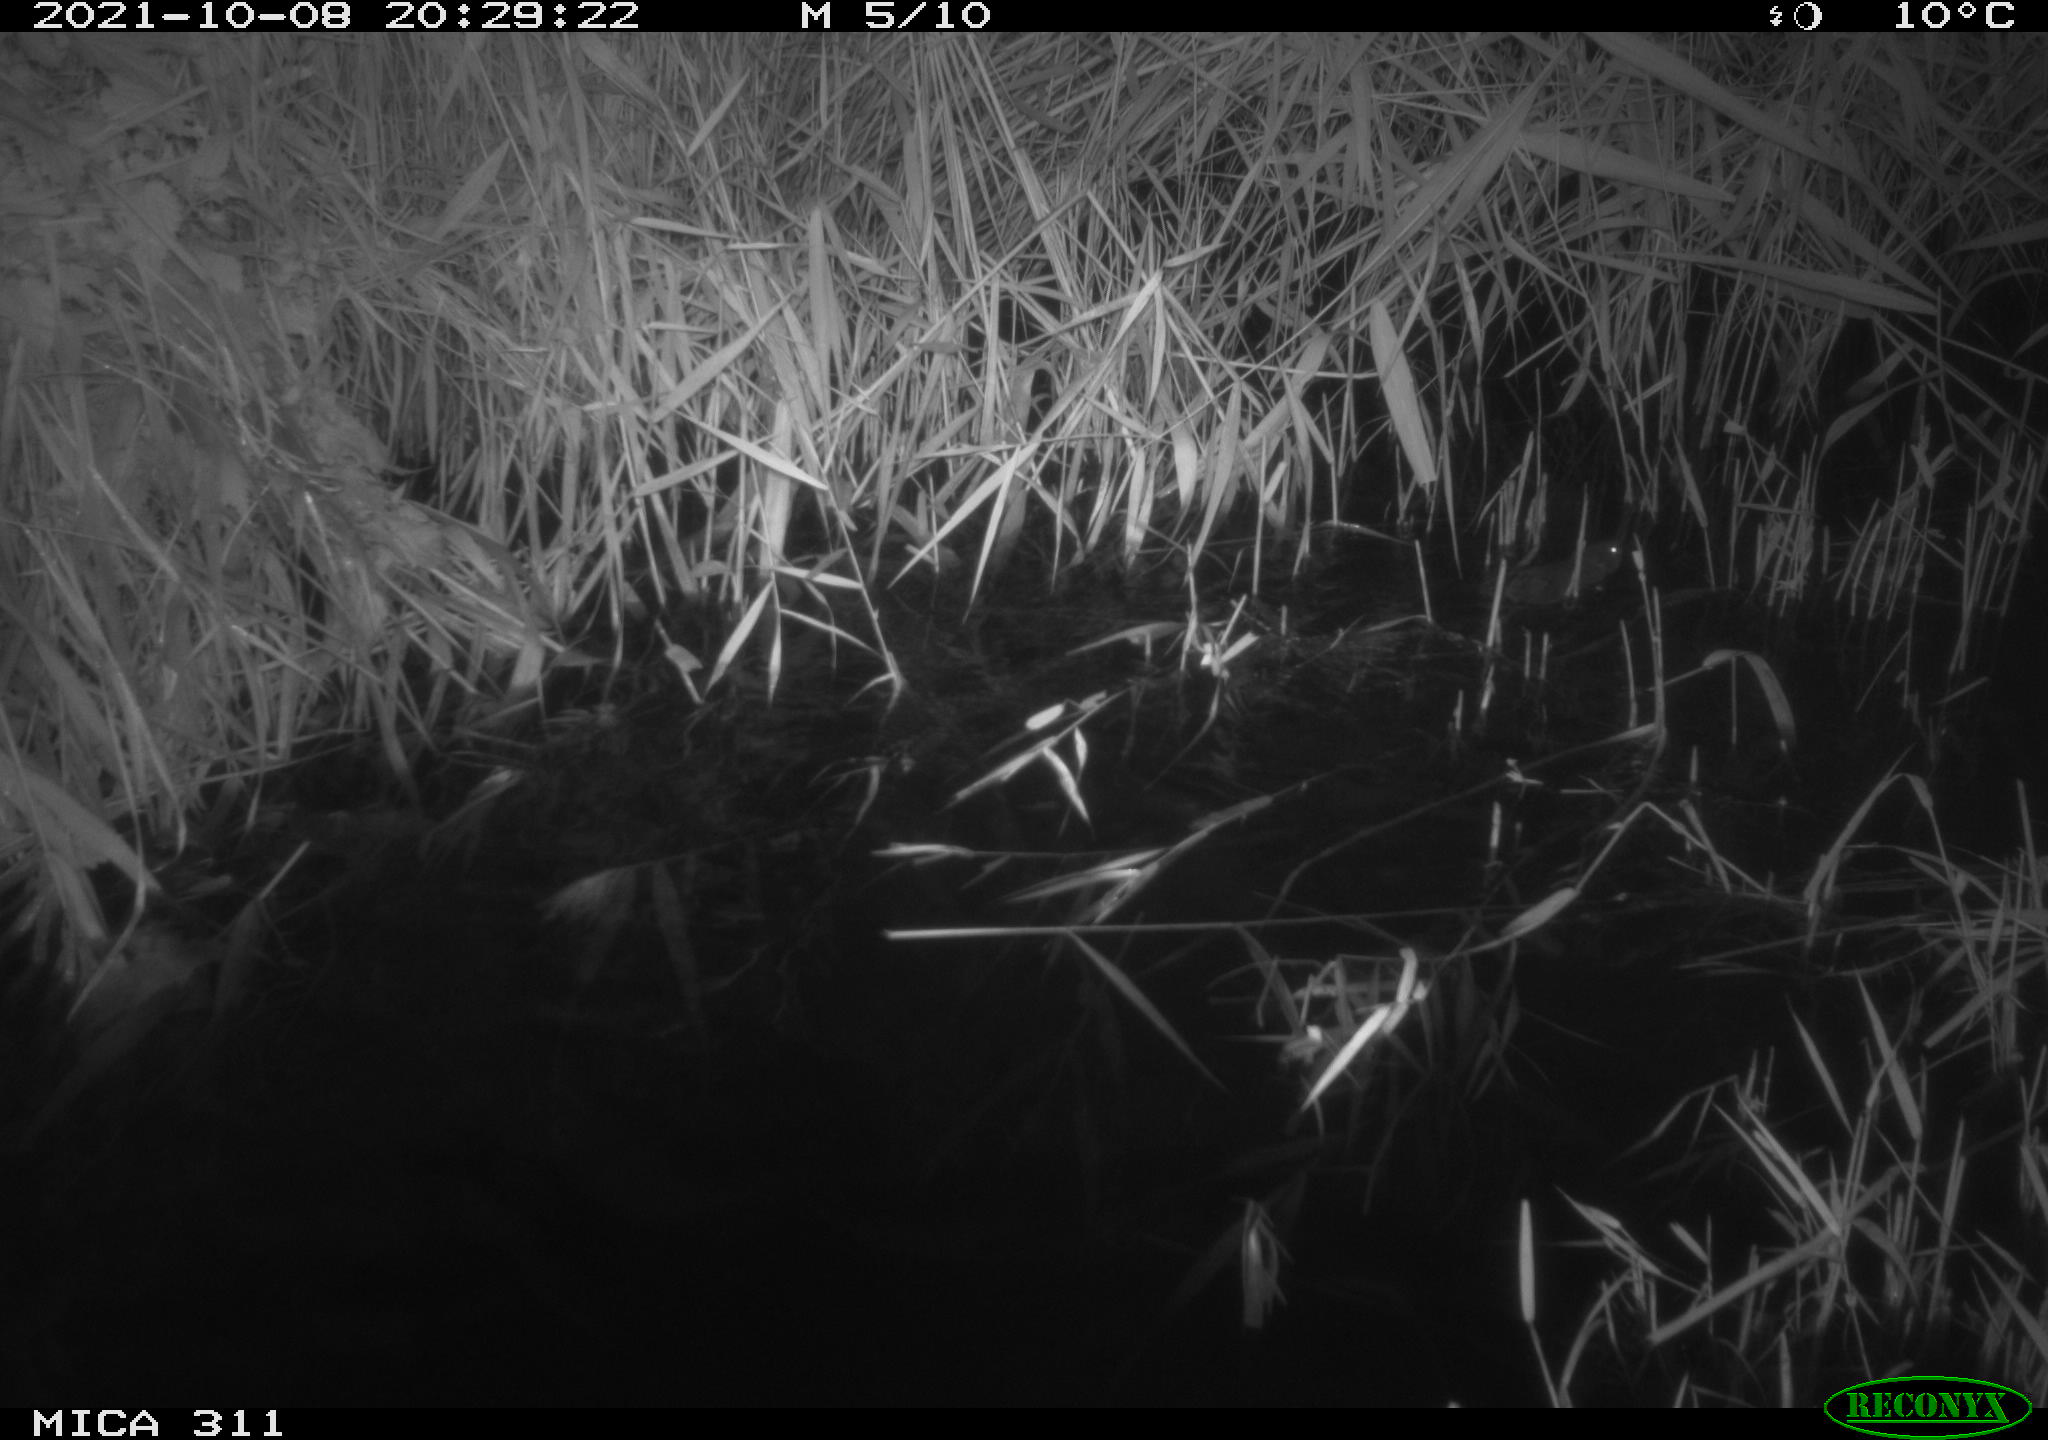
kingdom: Animalia
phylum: Chordata
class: Mammalia
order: Rodentia
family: Muridae
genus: Rattus
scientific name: Rattus norvegicus
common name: Brown rat
